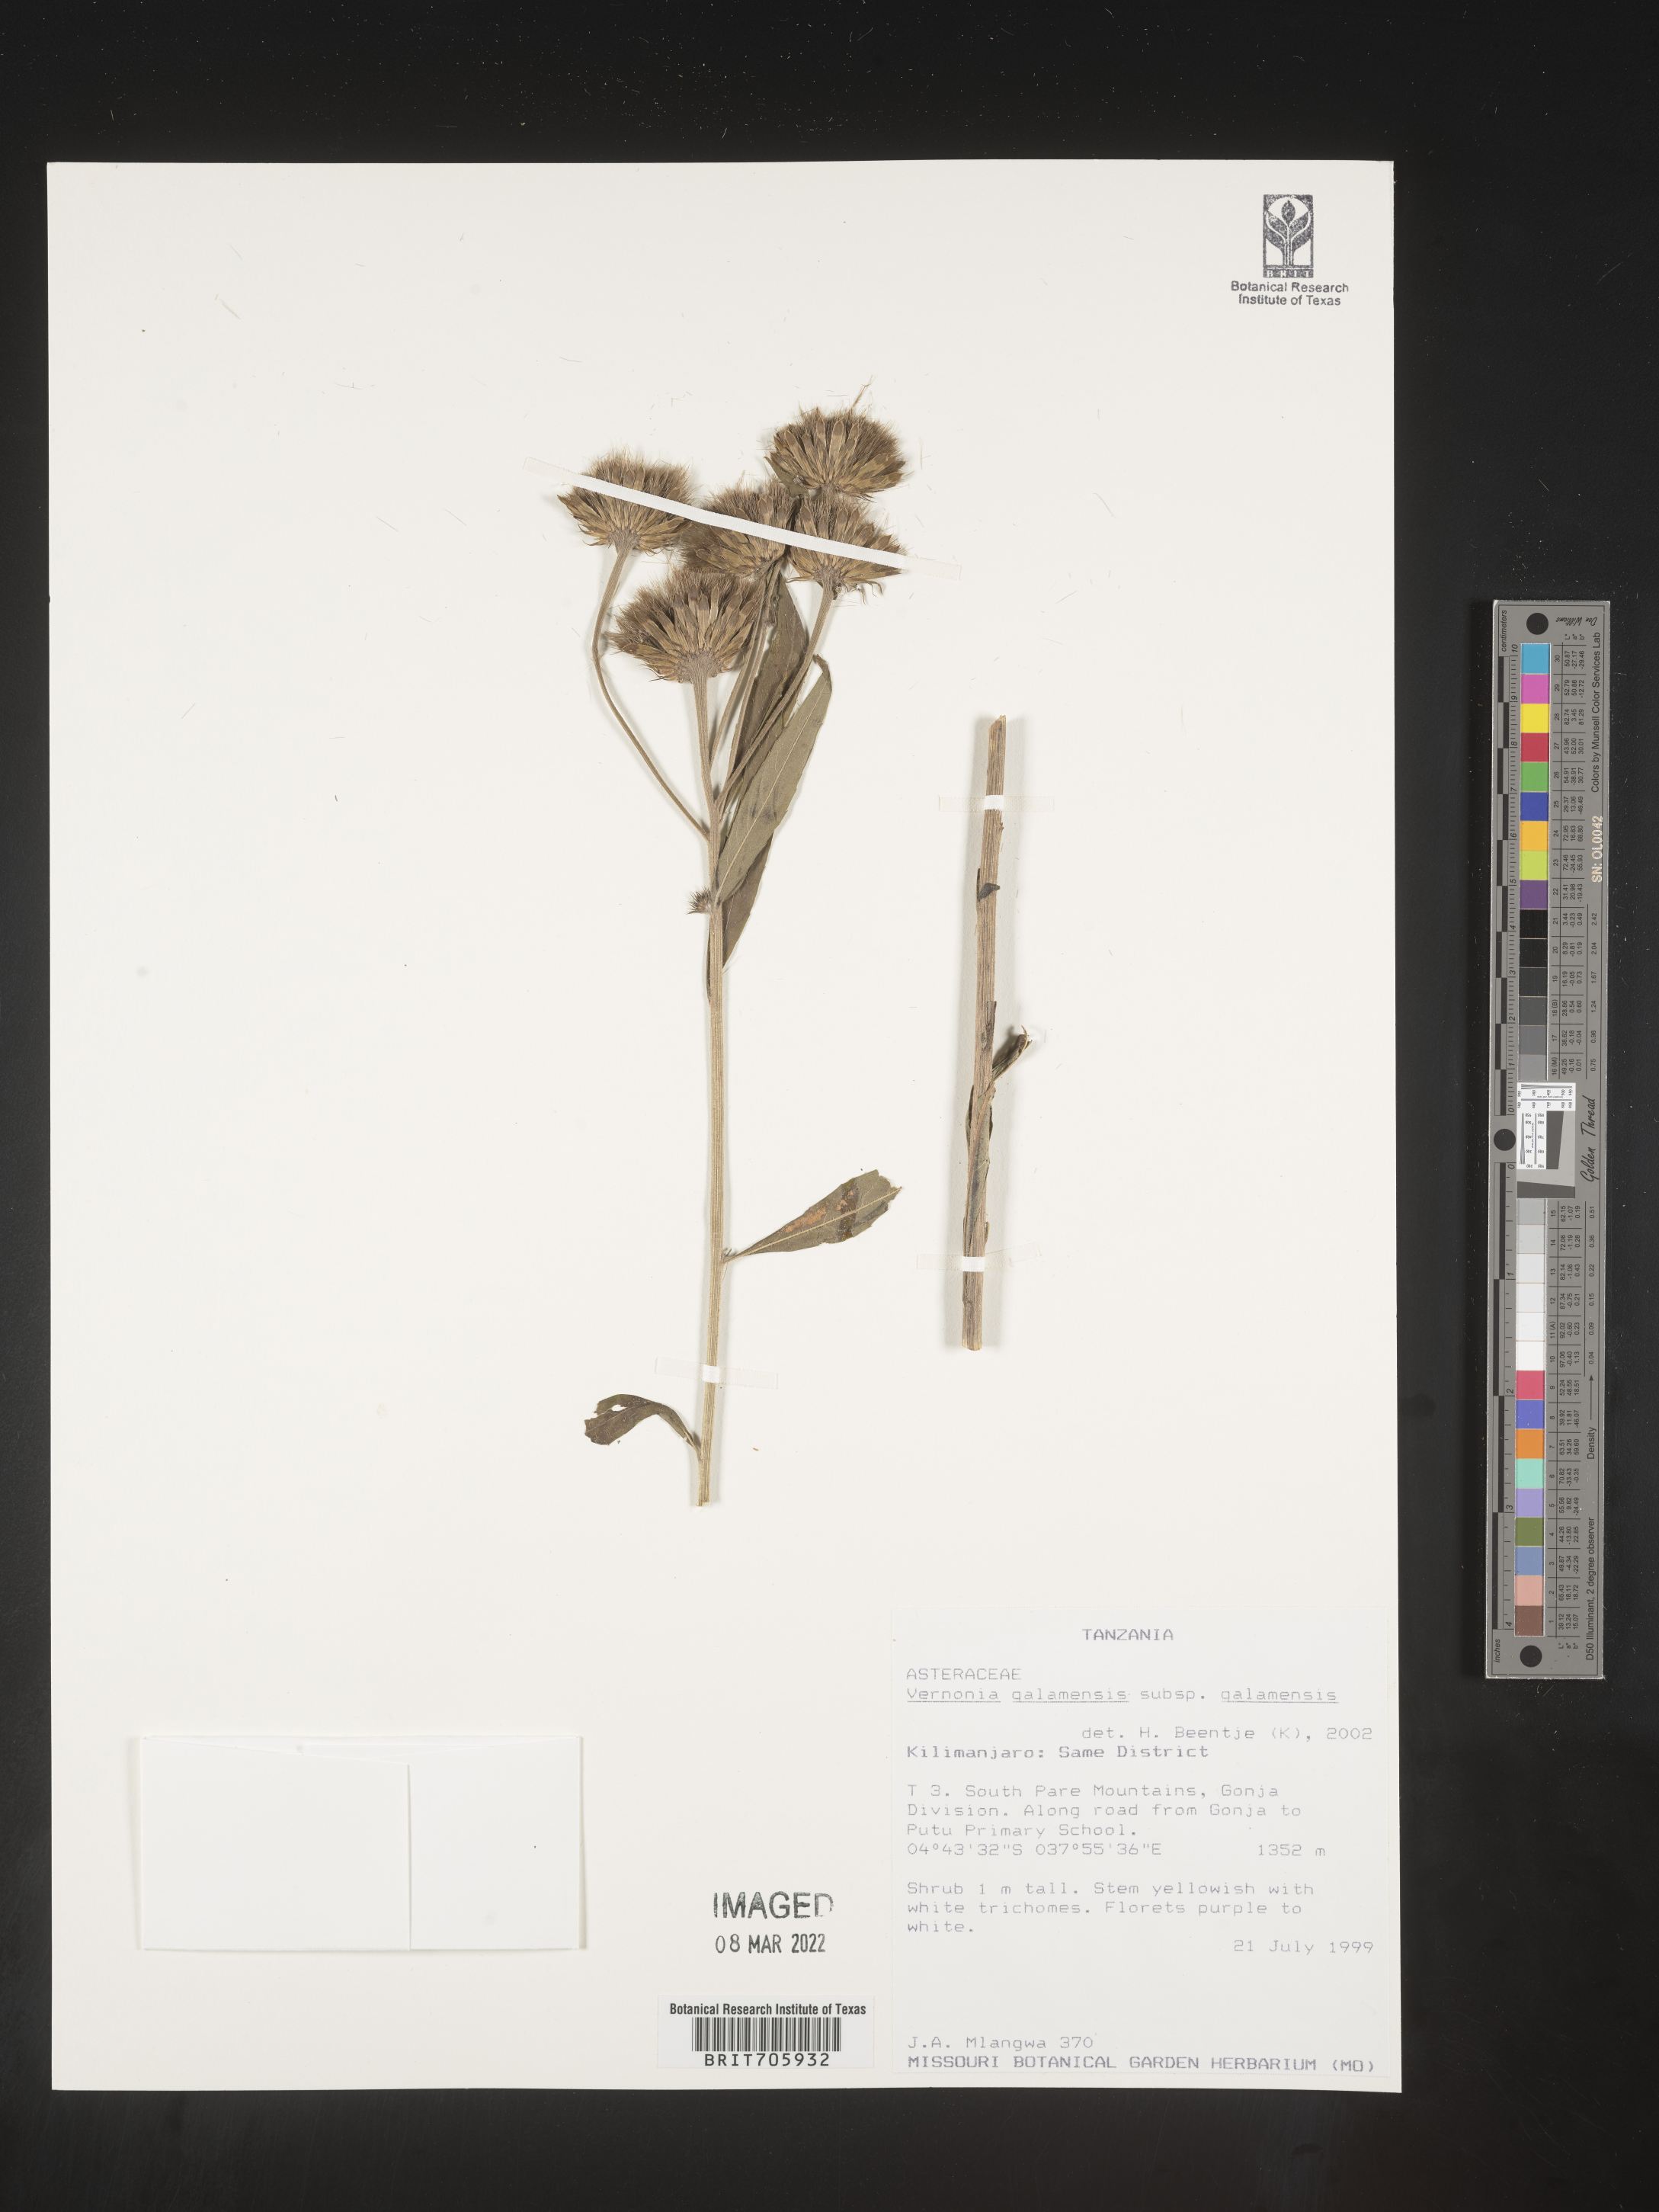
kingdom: Plantae
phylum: Tracheophyta
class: Magnoliopsida
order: Asterales
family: Asteraceae
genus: Vernonia
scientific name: Vernonia
